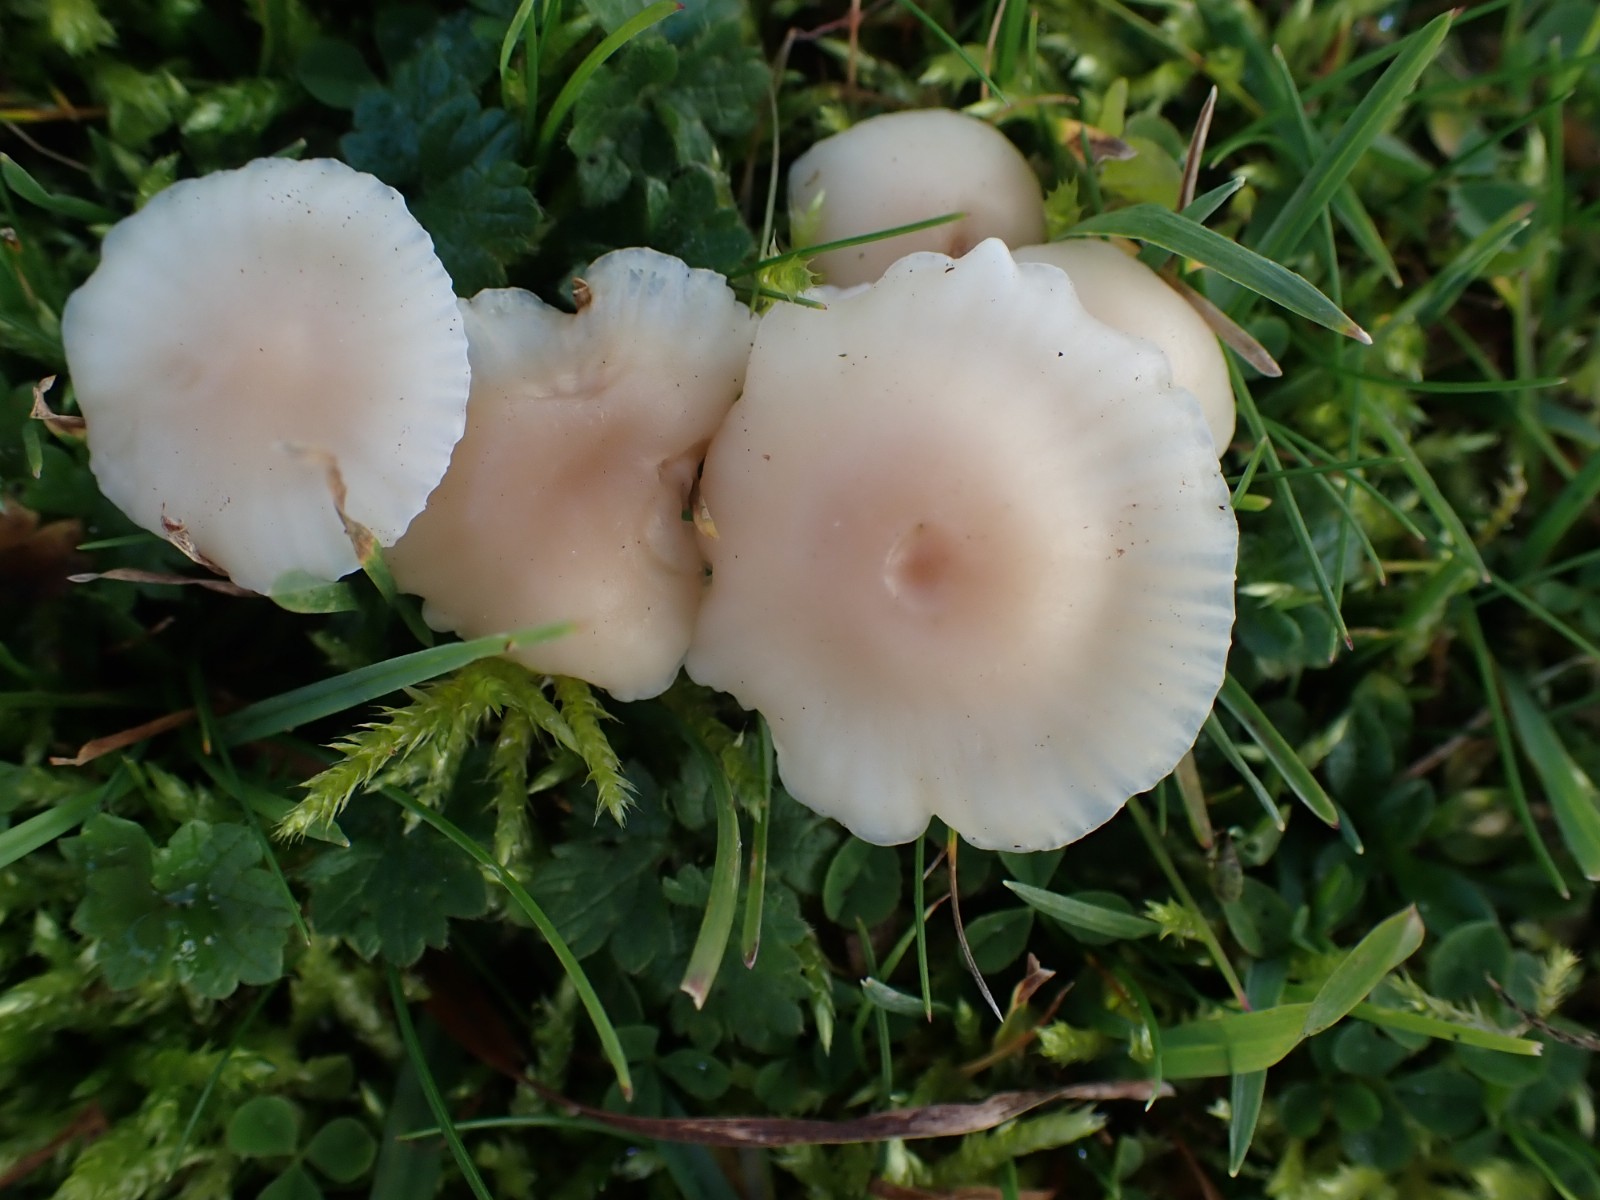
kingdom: Fungi
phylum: Basidiomycota
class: Agaricomycetes
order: Agaricales
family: Hygrophoraceae
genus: Cuphophyllus
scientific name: Cuphophyllus virgineus
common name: isabella-vokshat
